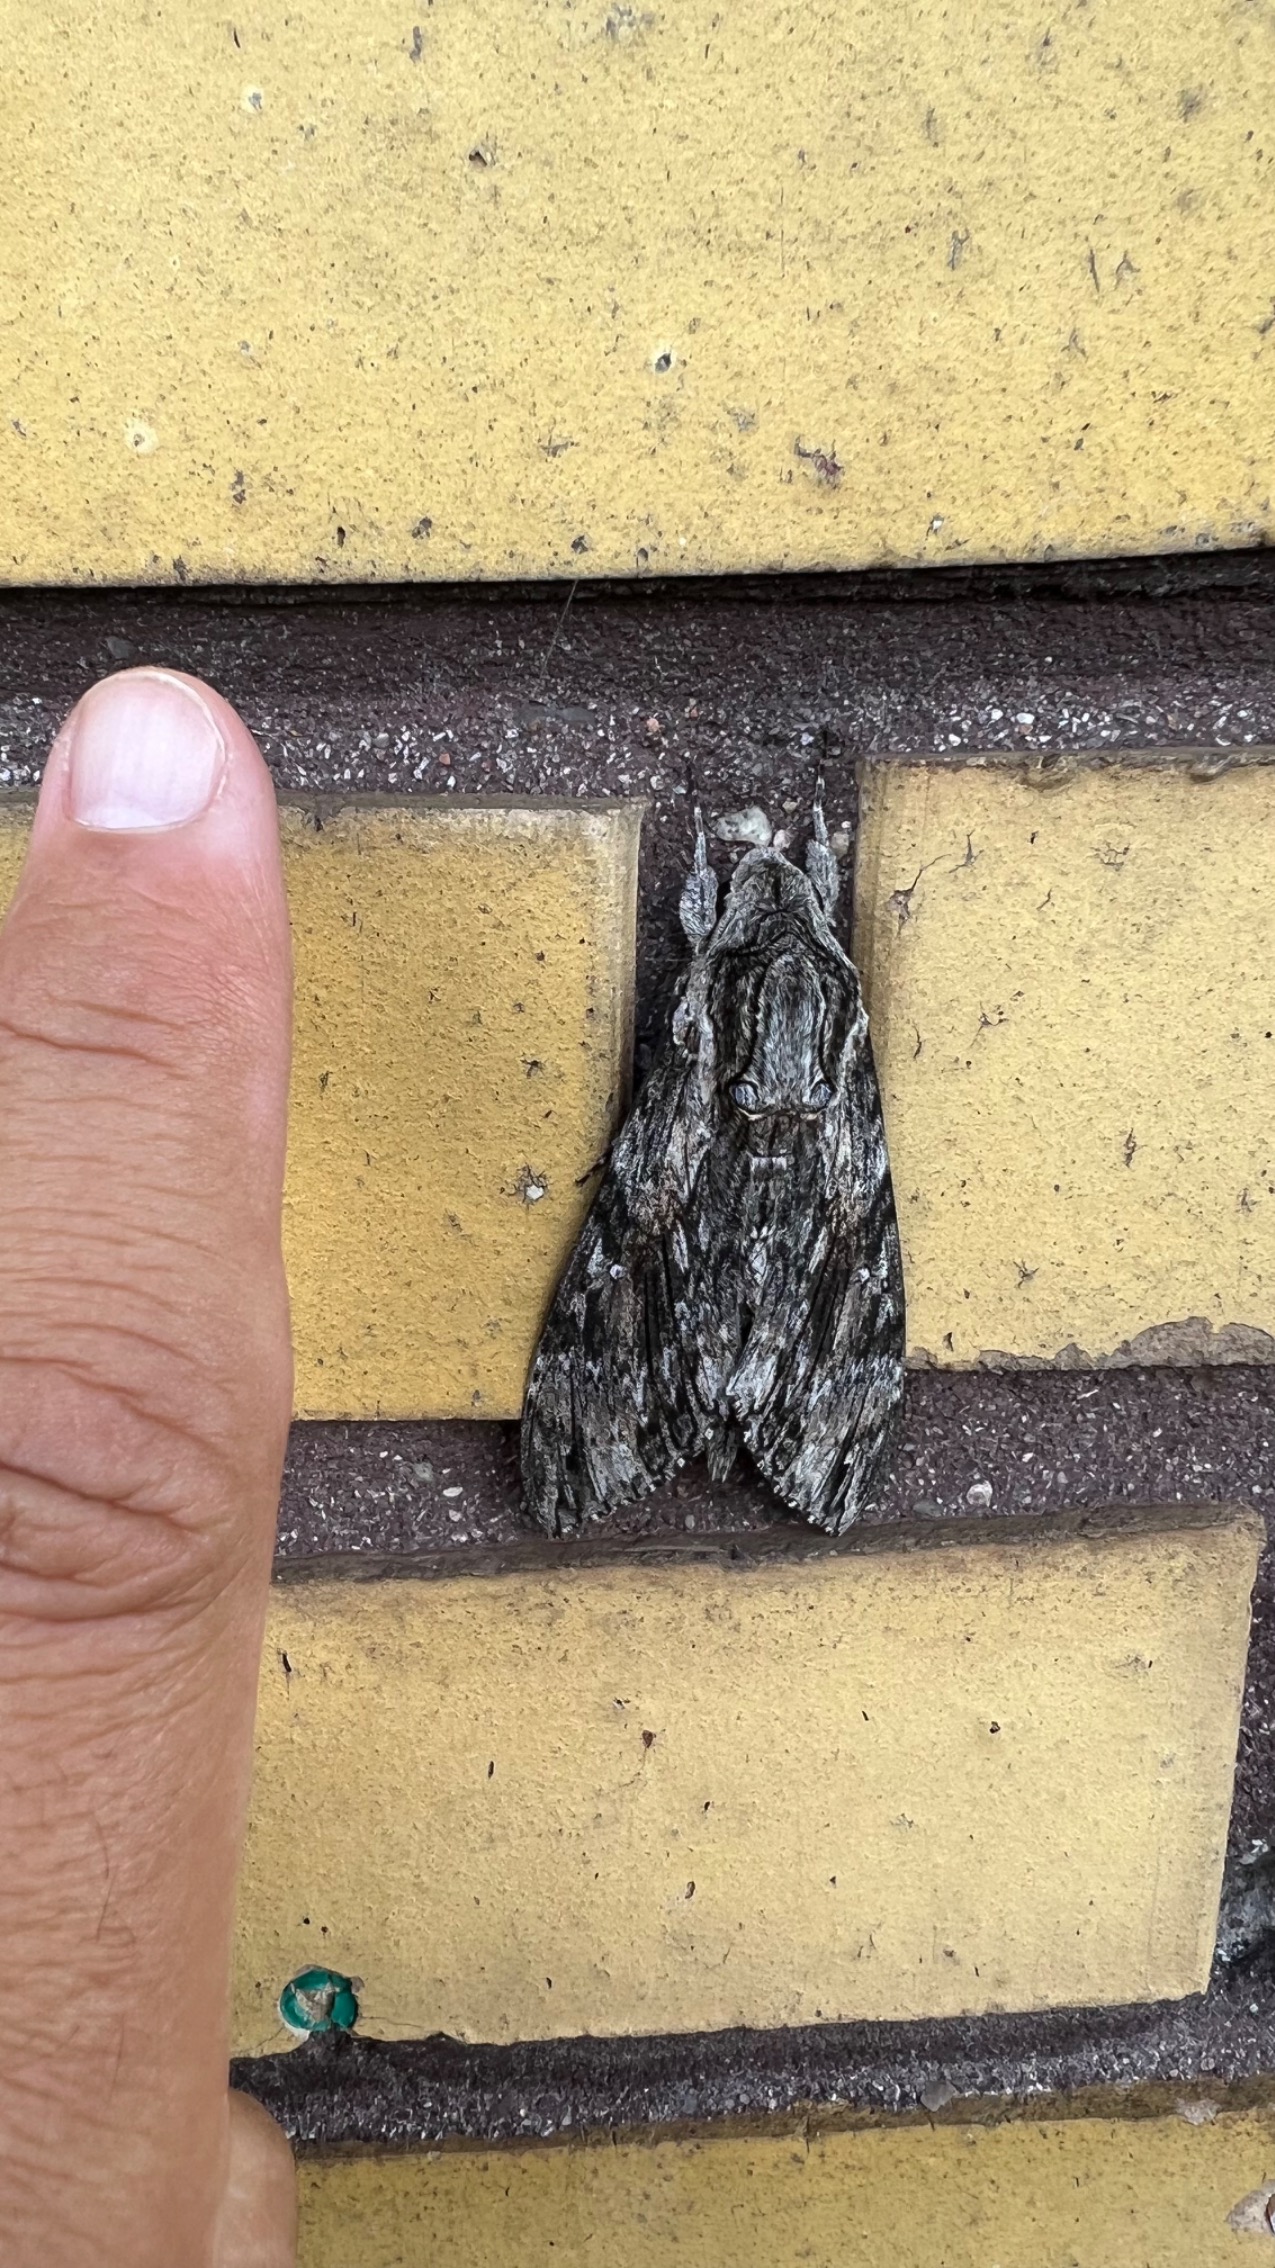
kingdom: Animalia
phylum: Arthropoda
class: Insecta
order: Lepidoptera
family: Sphingidae
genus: Agrius
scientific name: Agrius convolvuli
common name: Snerlesværmer
